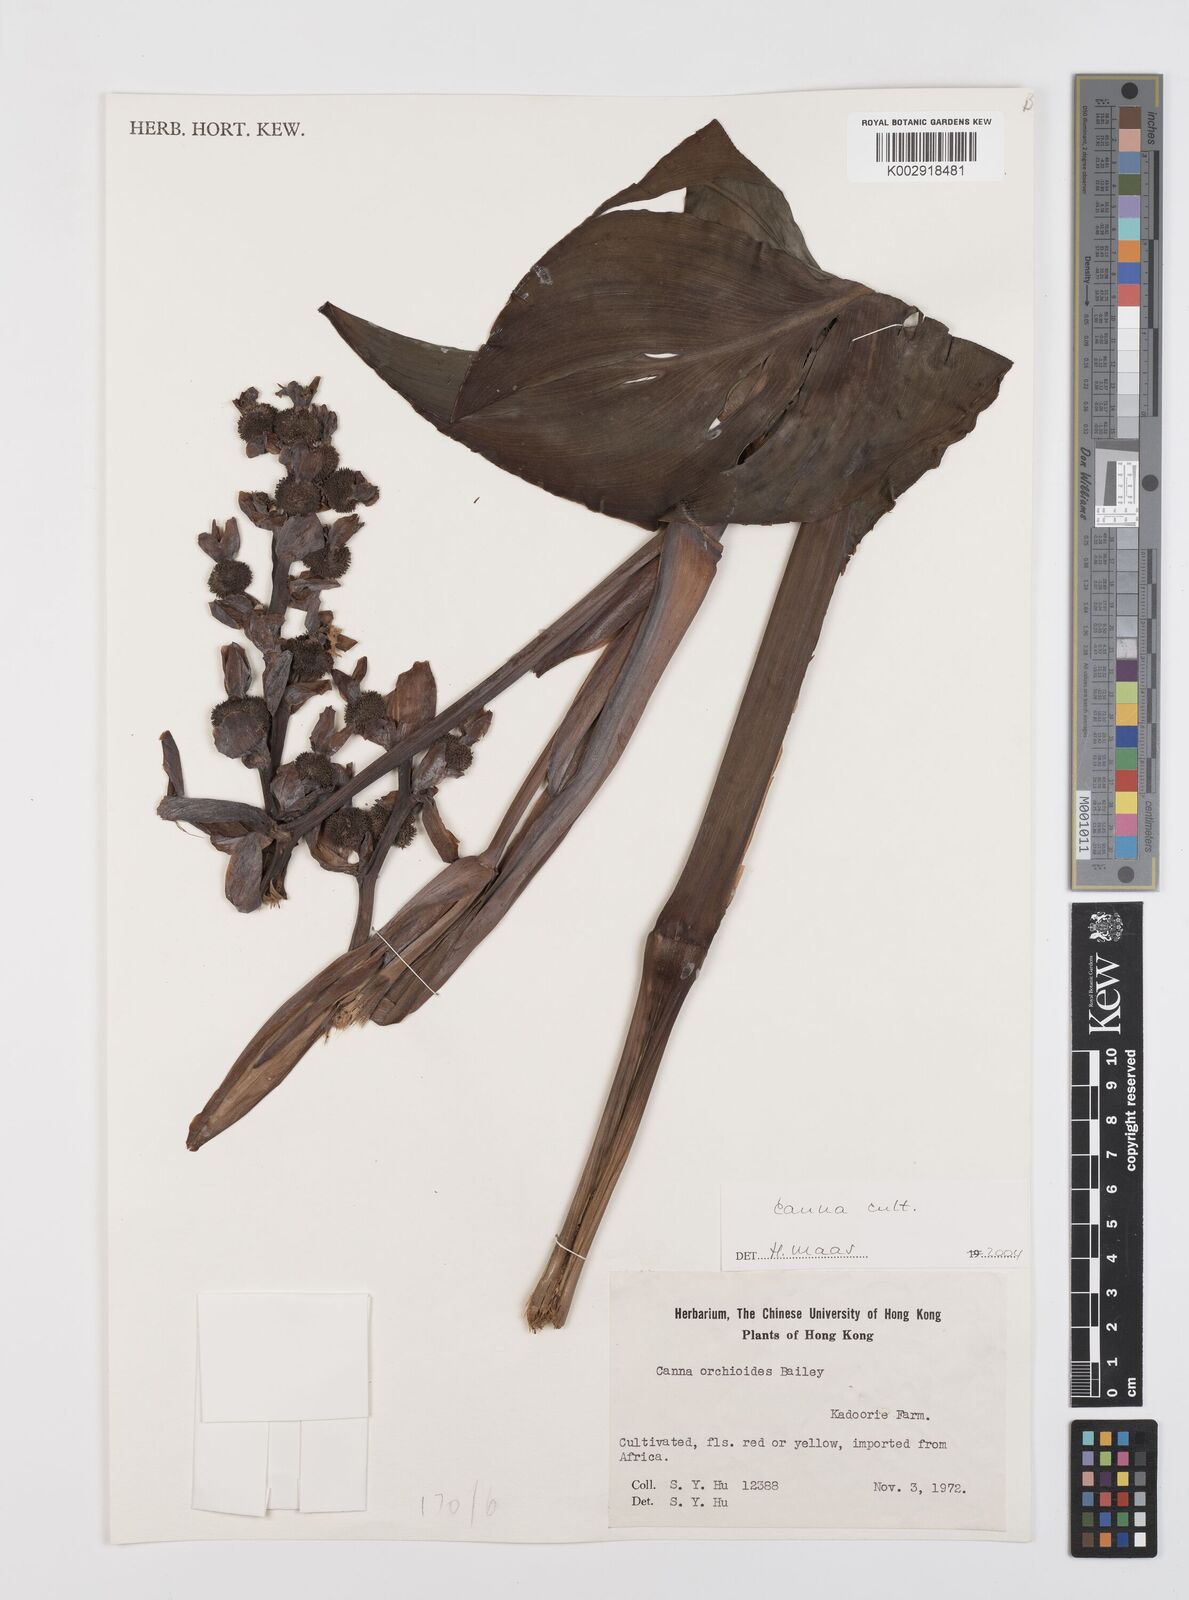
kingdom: Plantae
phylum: Tracheophyta
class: Liliopsida
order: Zingiberales
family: Cannaceae
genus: Canna
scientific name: Canna indica
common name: Indian shot
